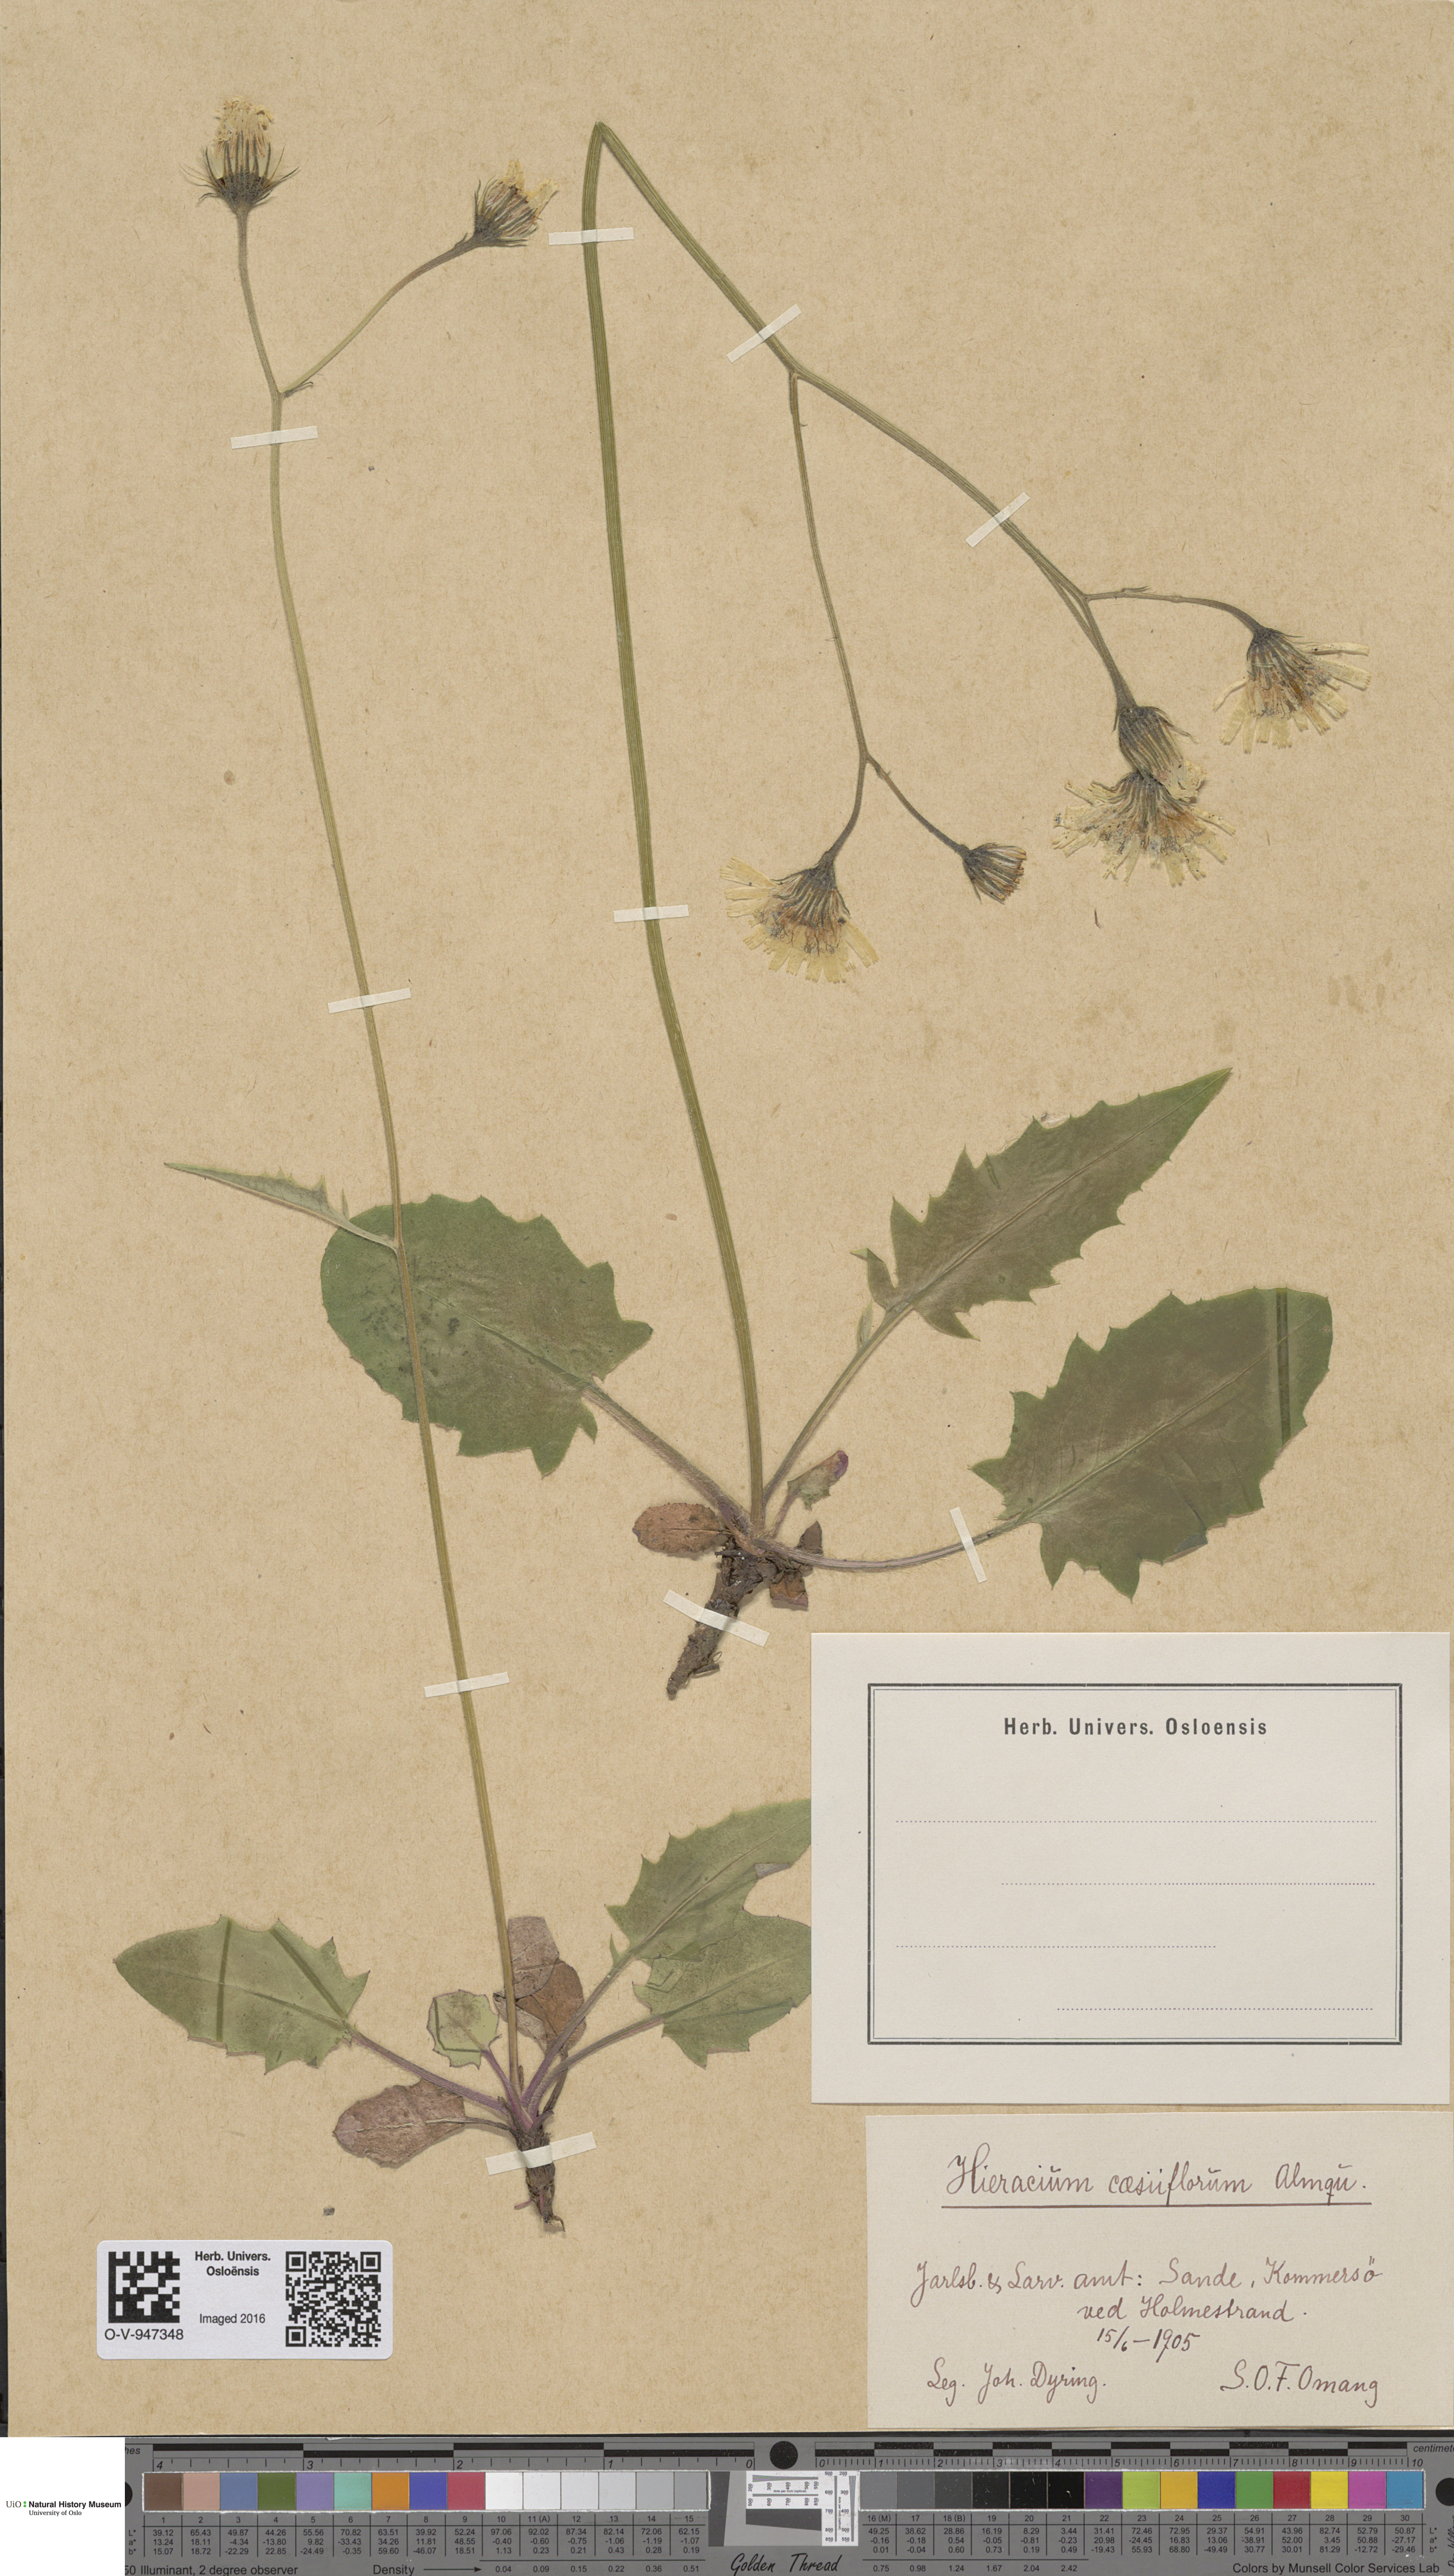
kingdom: Plantae
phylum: Tracheophyta
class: Magnoliopsida
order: Asterales
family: Asteraceae
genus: Hieracium
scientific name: Hieracium bifidum
